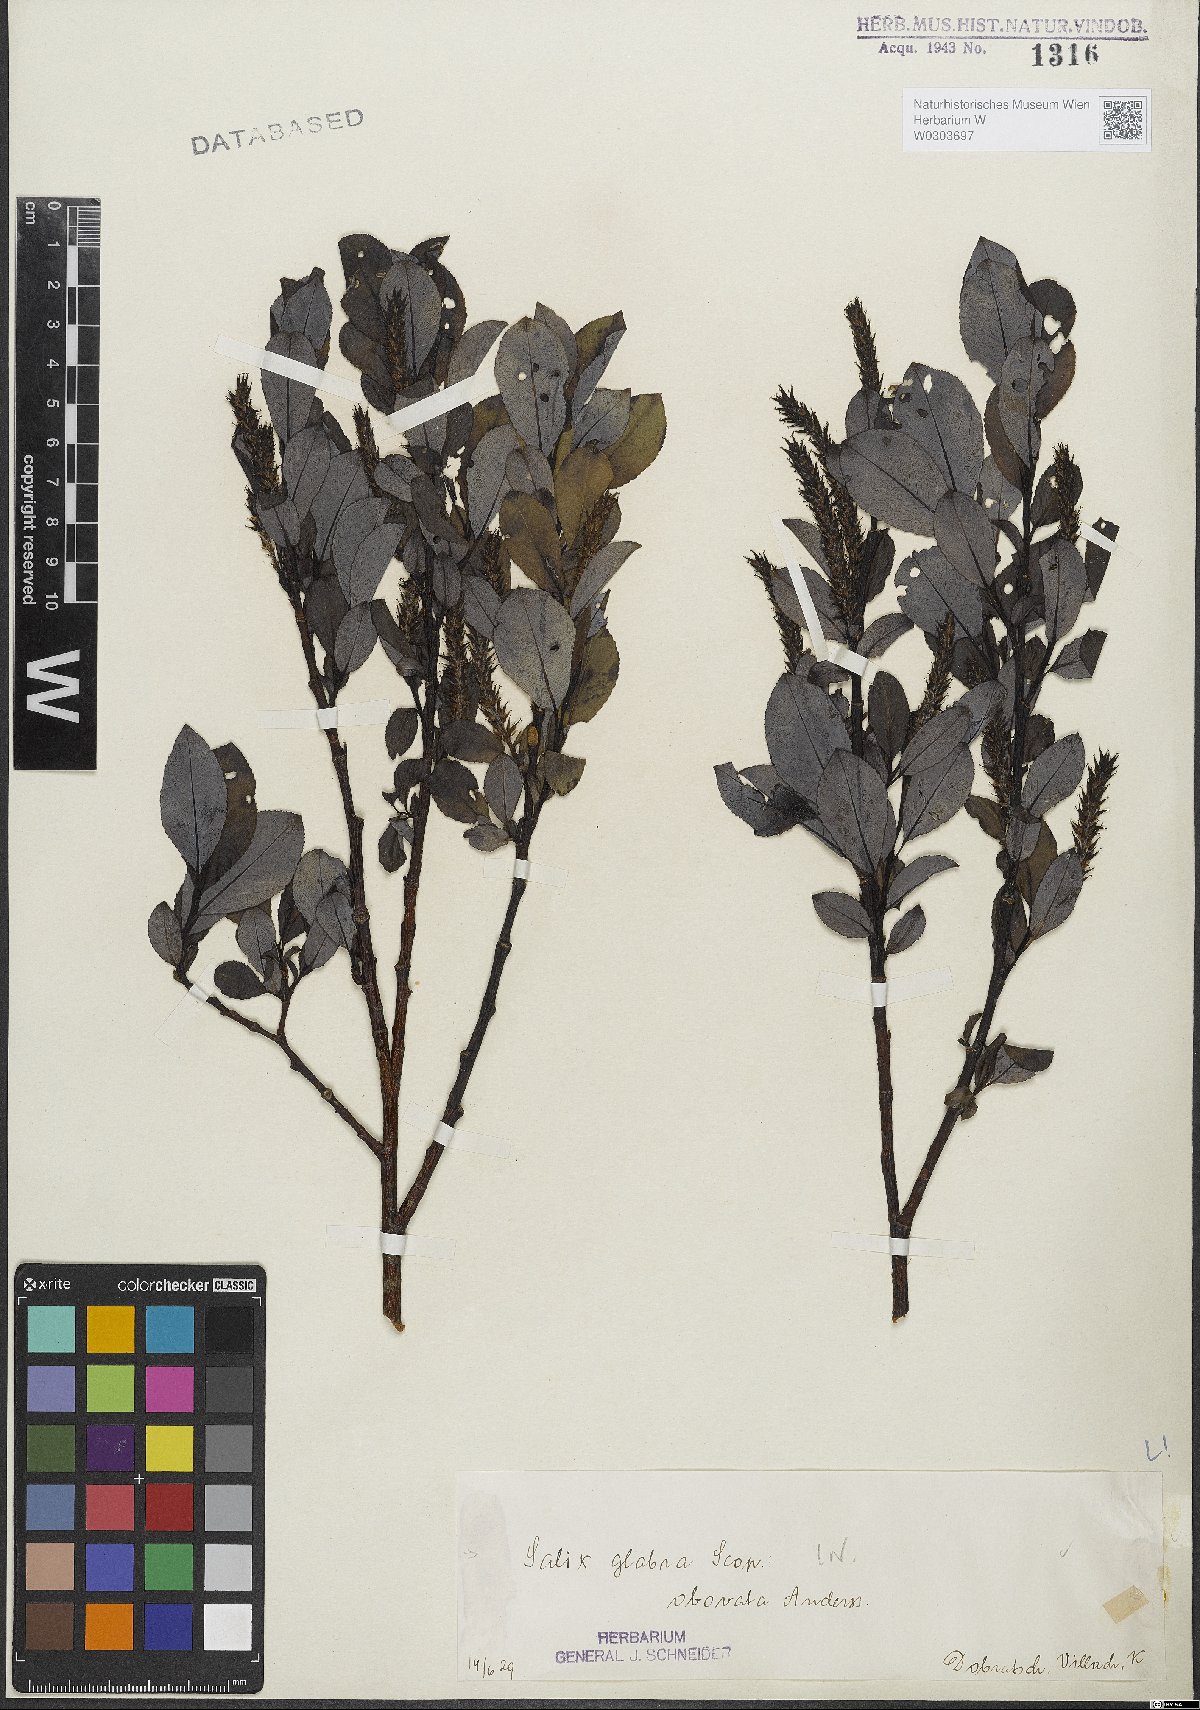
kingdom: Plantae
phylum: Tracheophyta
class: Magnoliopsida
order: Malpighiales
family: Salicaceae
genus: Salix
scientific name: Salix glabra
